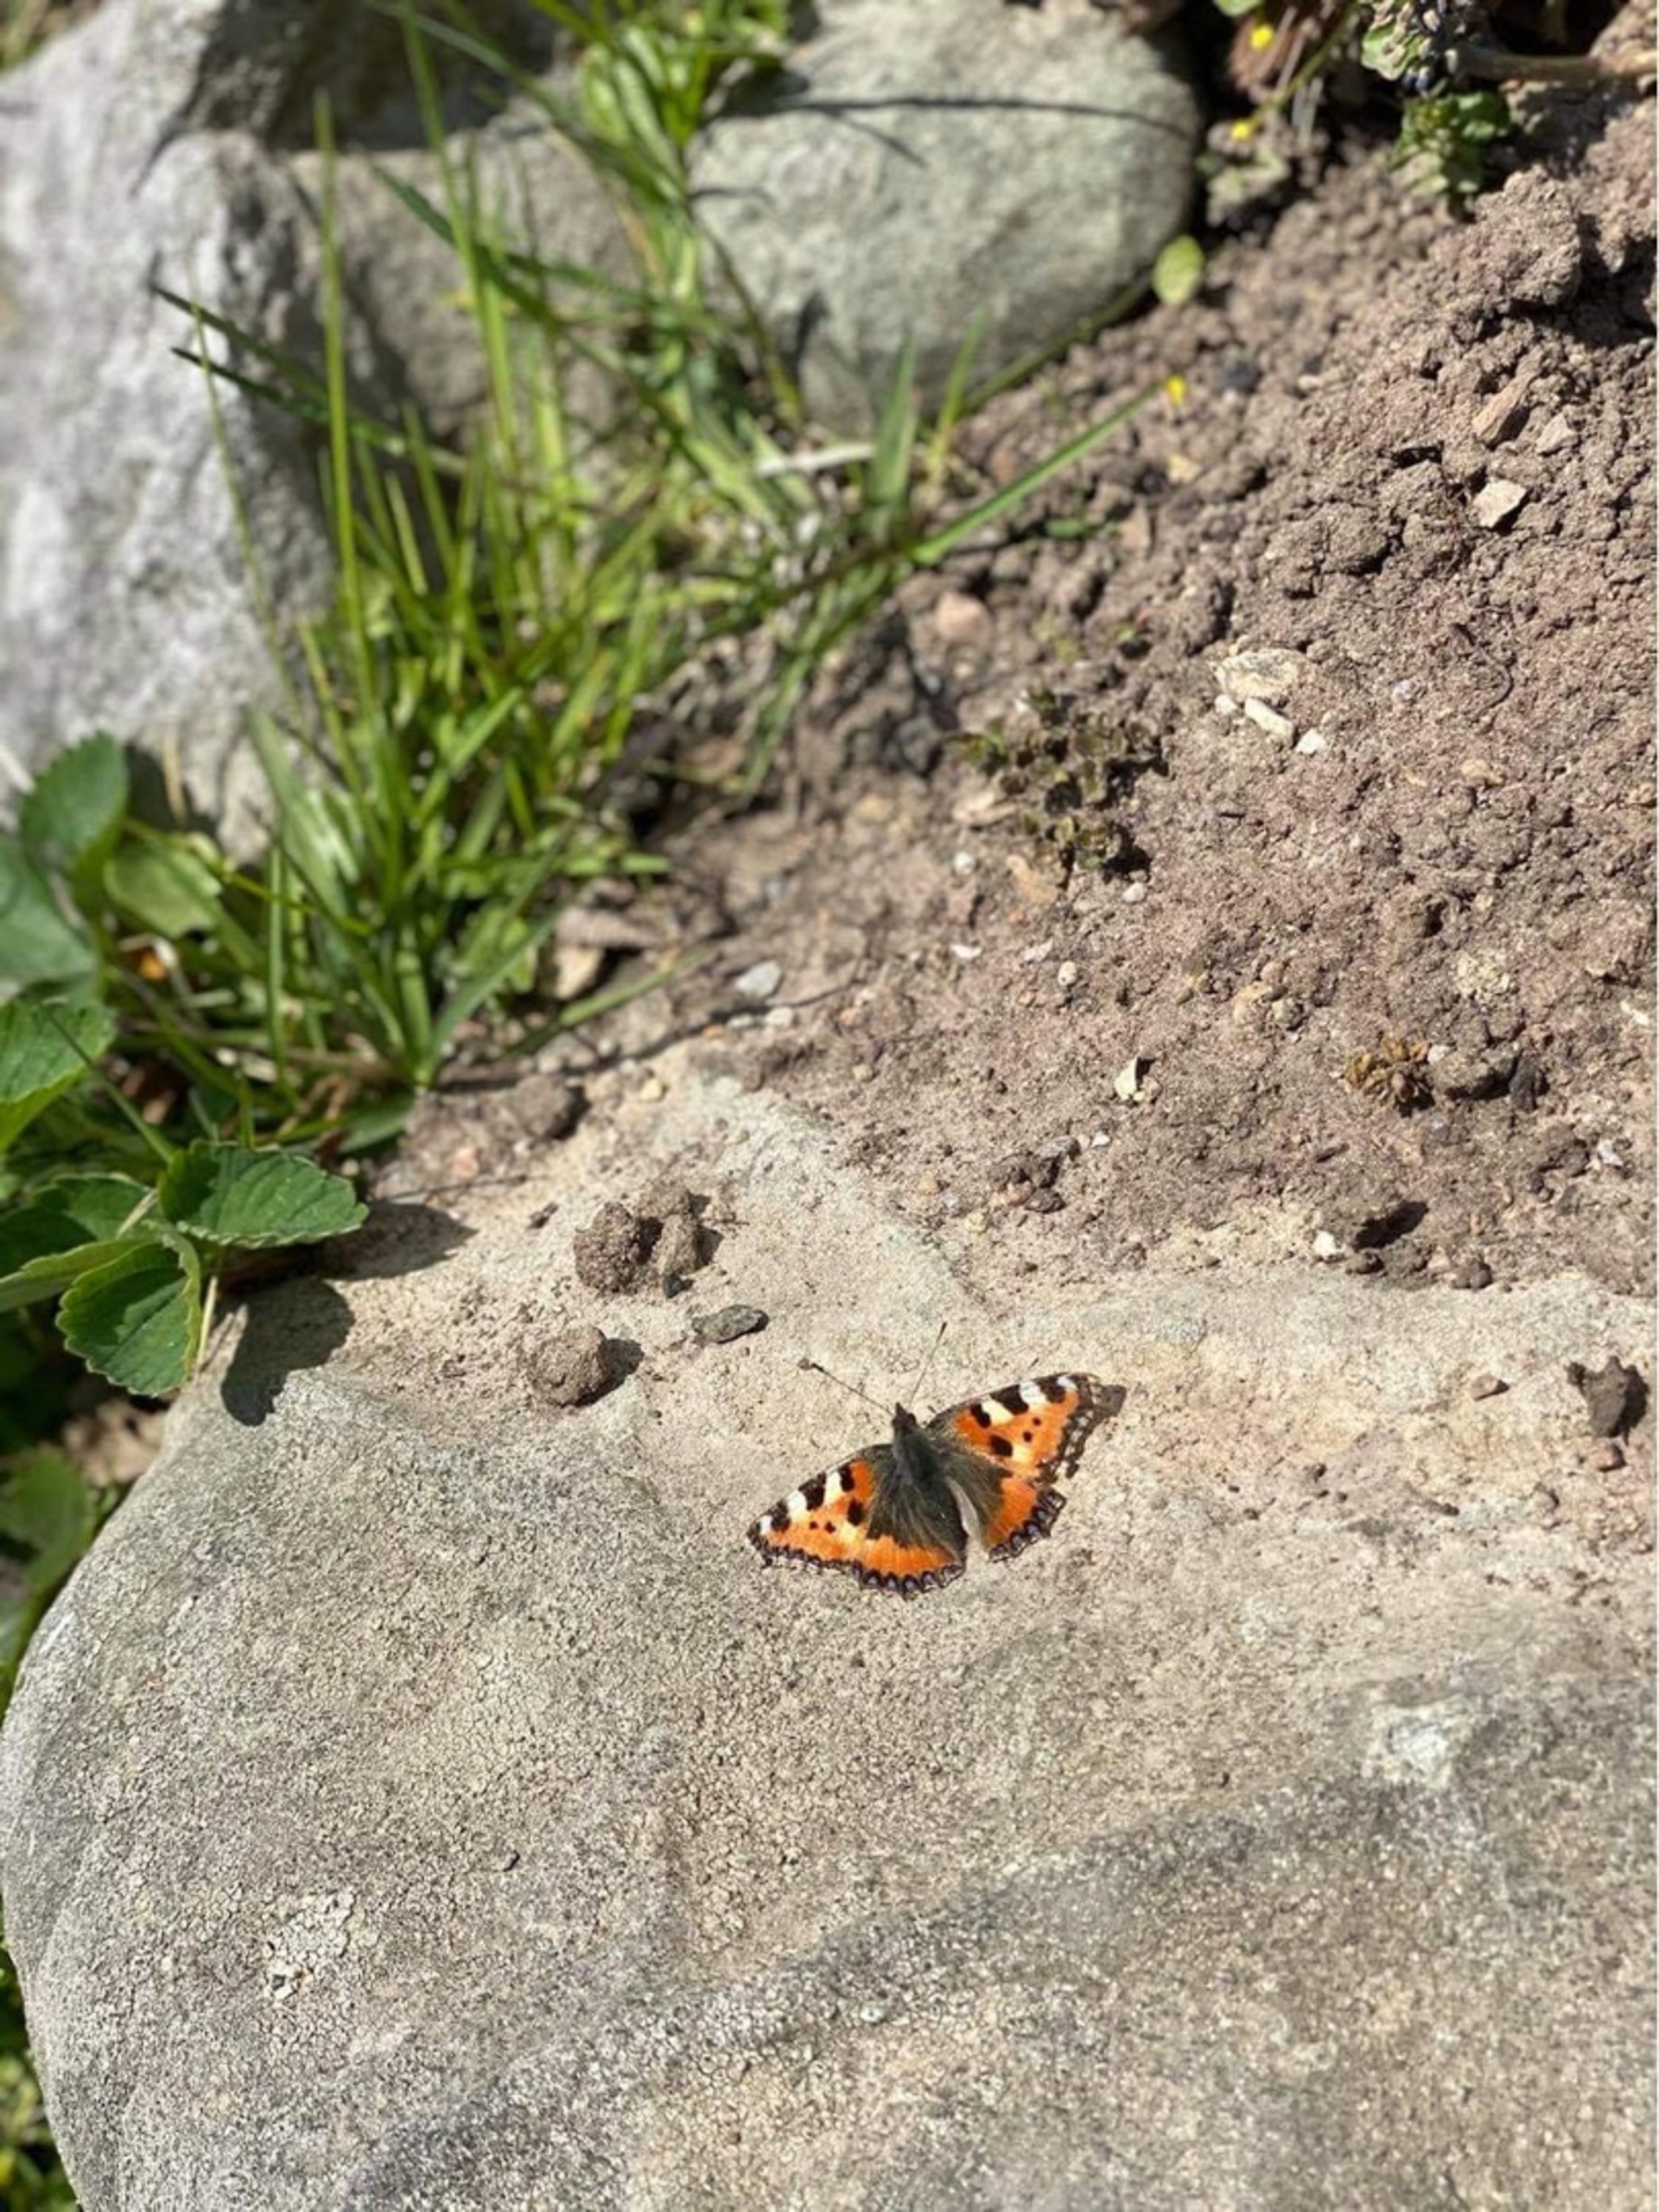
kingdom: Animalia
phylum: Arthropoda
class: Insecta
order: Lepidoptera
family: Nymphalidae
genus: Aglais
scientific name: Aglais urticae
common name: Nældens takvinge
